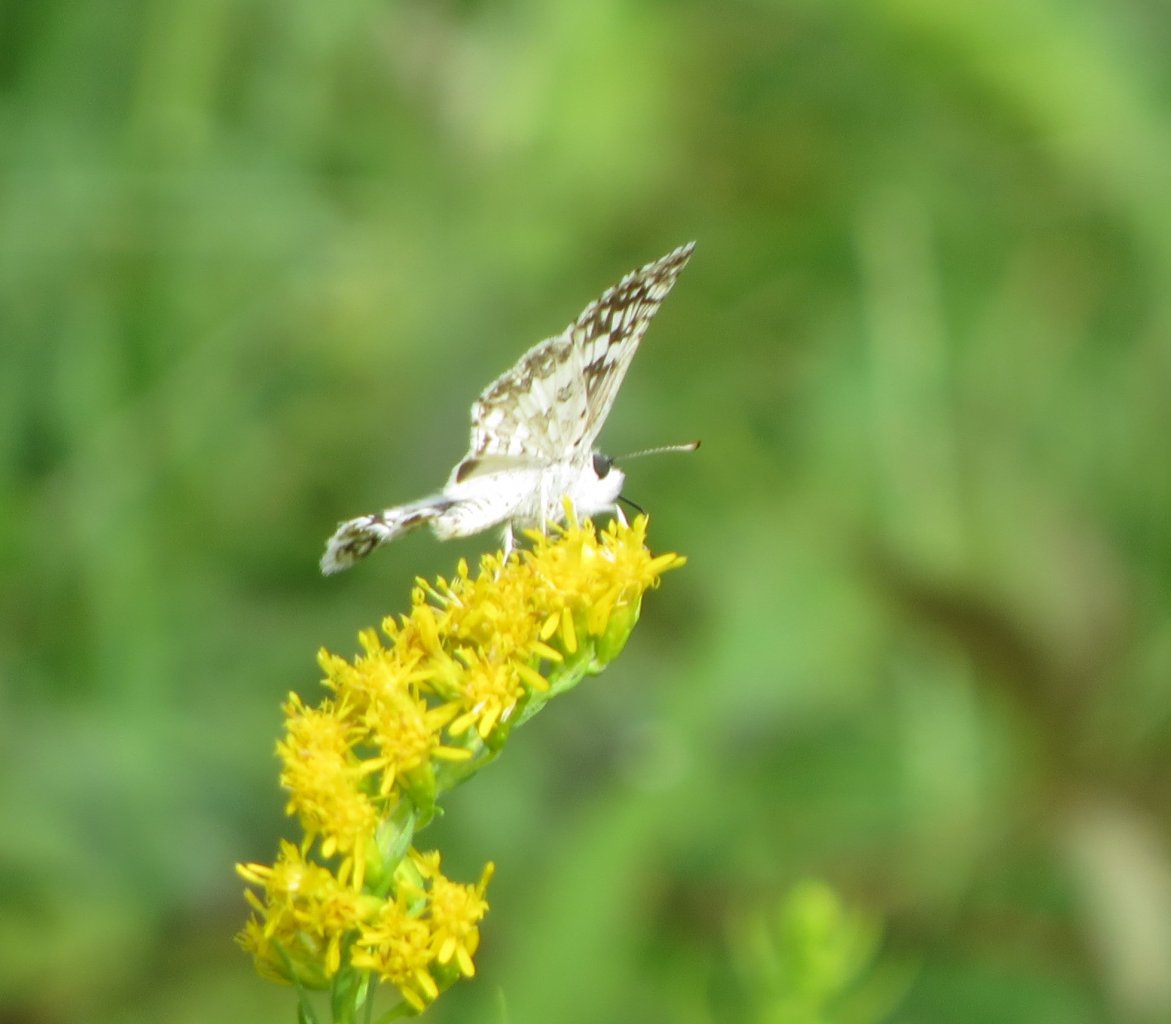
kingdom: Animalia
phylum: Arthropoda
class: Insecta
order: Lepidoptera
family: Hesperiidae
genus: Pyrgus
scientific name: Pyrgus communis
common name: White Checkered-Skipper
